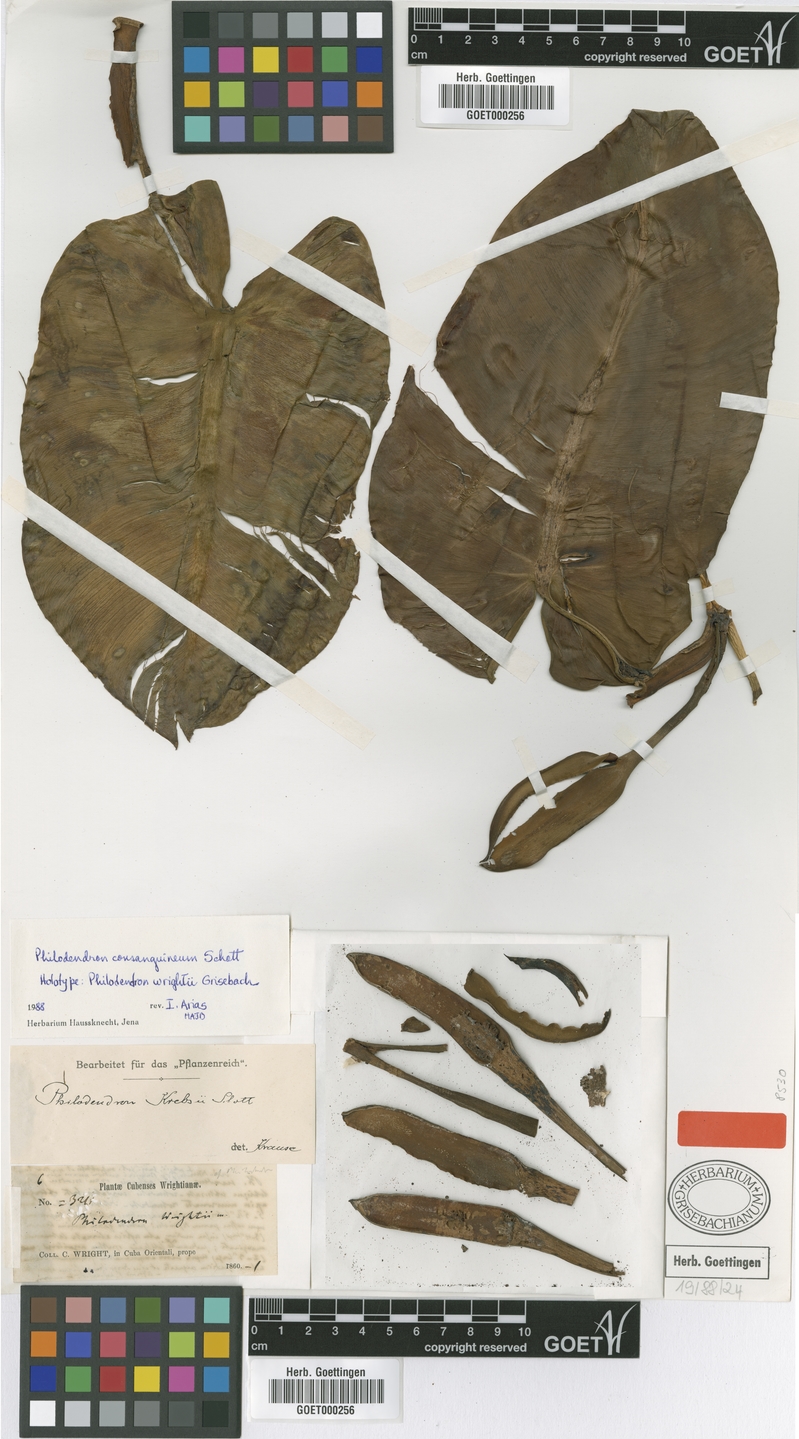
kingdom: Plantae
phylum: Tracheophyta
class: Liliopsida
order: Alismatales
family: Araceae
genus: Philodendron
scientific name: Philodendron consanguineum
